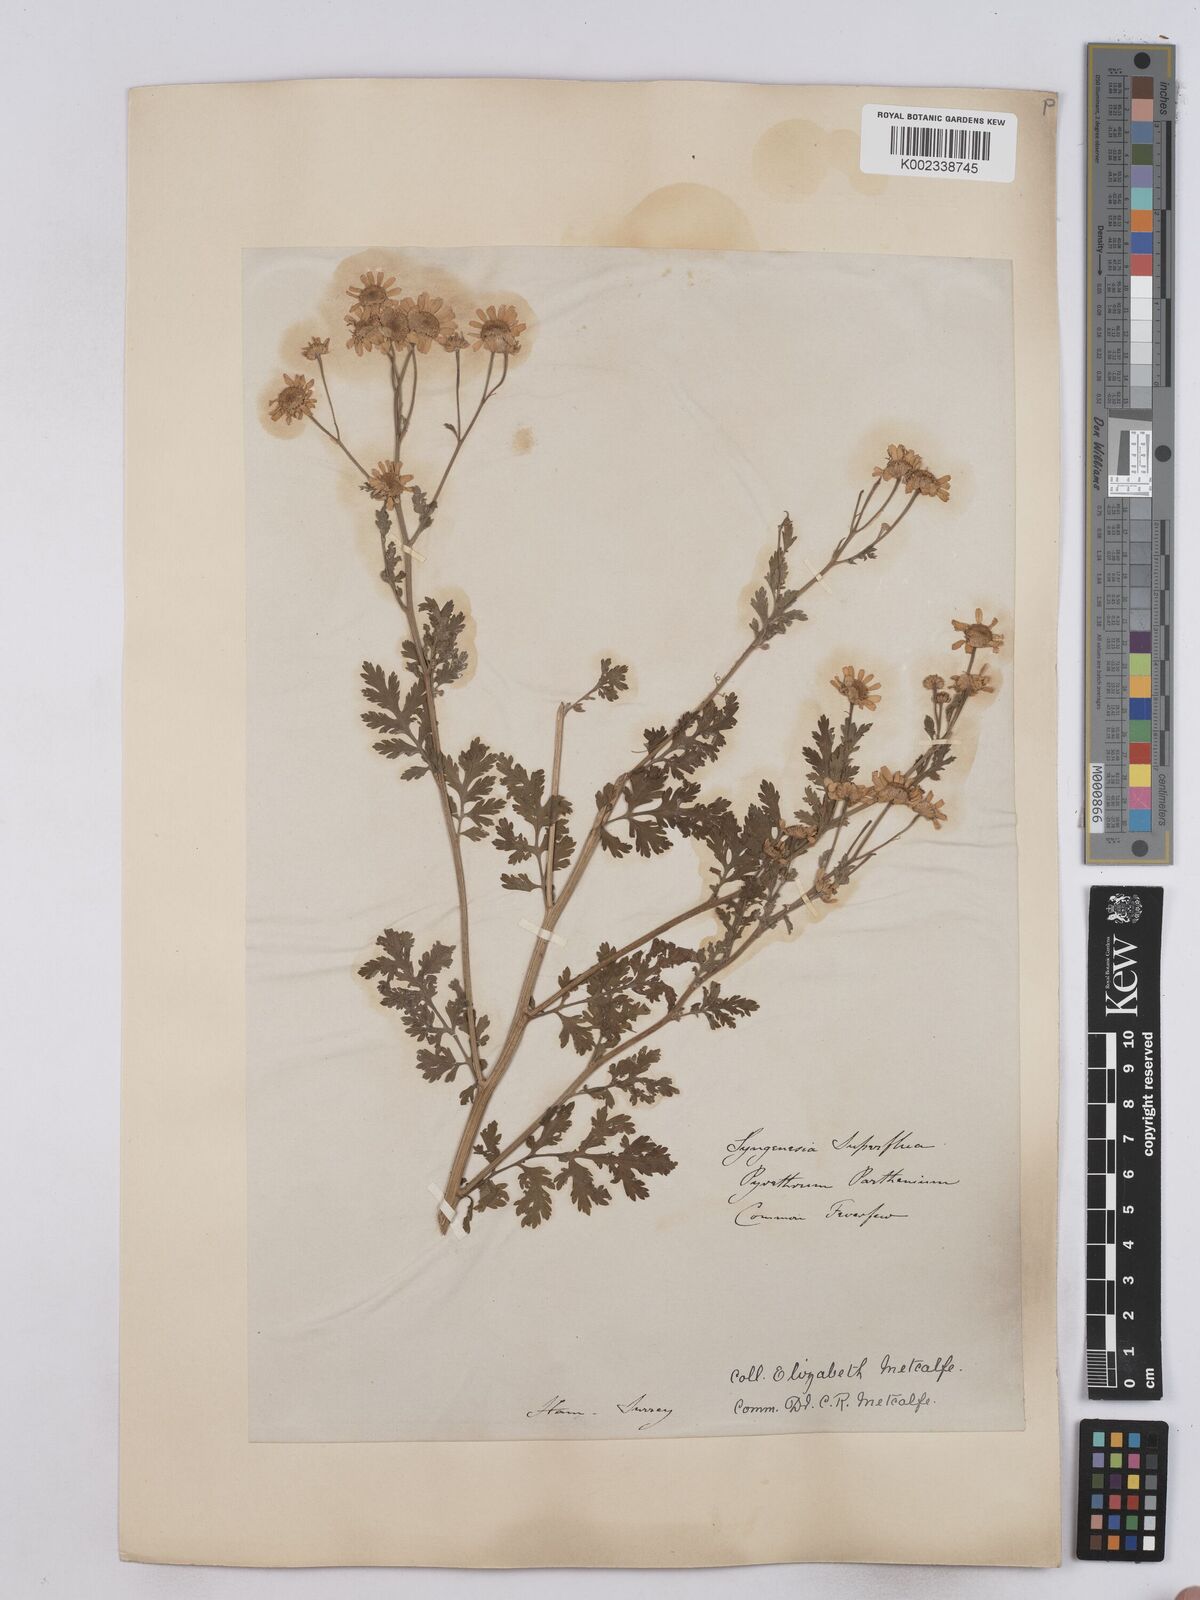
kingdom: Plantae
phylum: Tracheophyta
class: Magnoliopsida
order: Asterales
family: Asteraceae
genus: Tanacetum
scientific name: Tanacetum parthenium
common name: Feverfew
